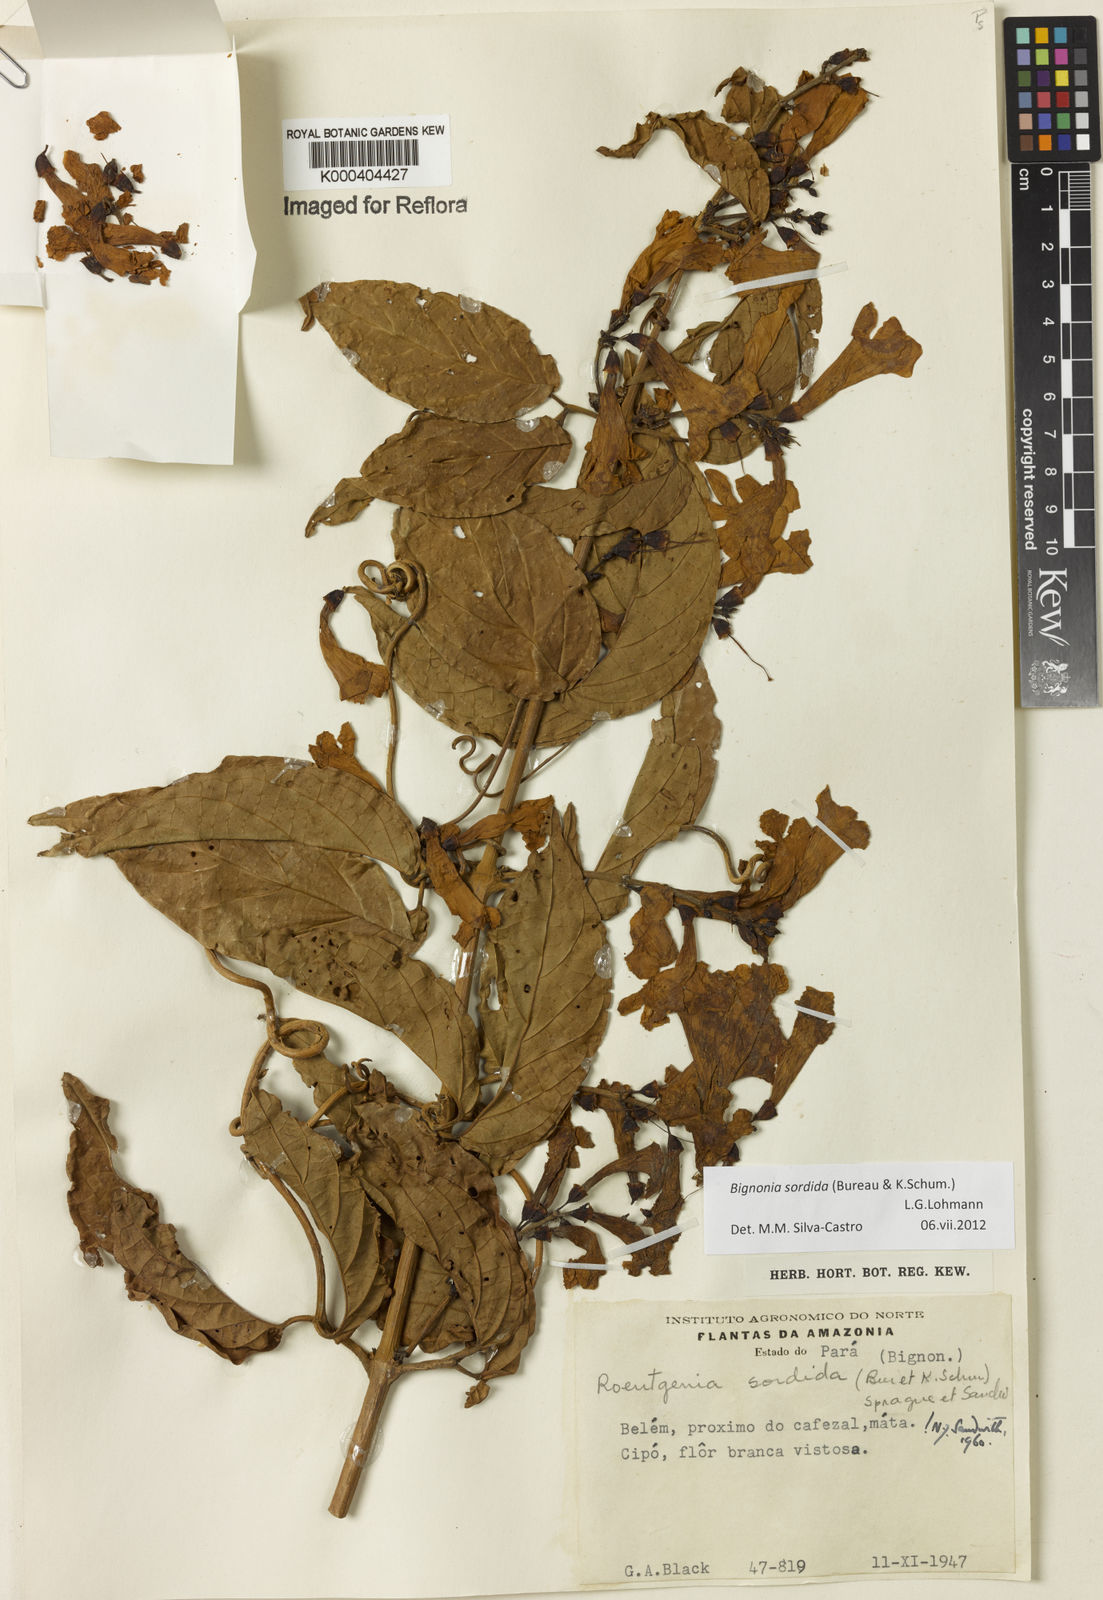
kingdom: Plantae
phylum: Tracheophyta
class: Magnoliopsida
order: Lamiales
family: Bignoniaceae
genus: Bignonia
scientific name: Bignonia sordida
